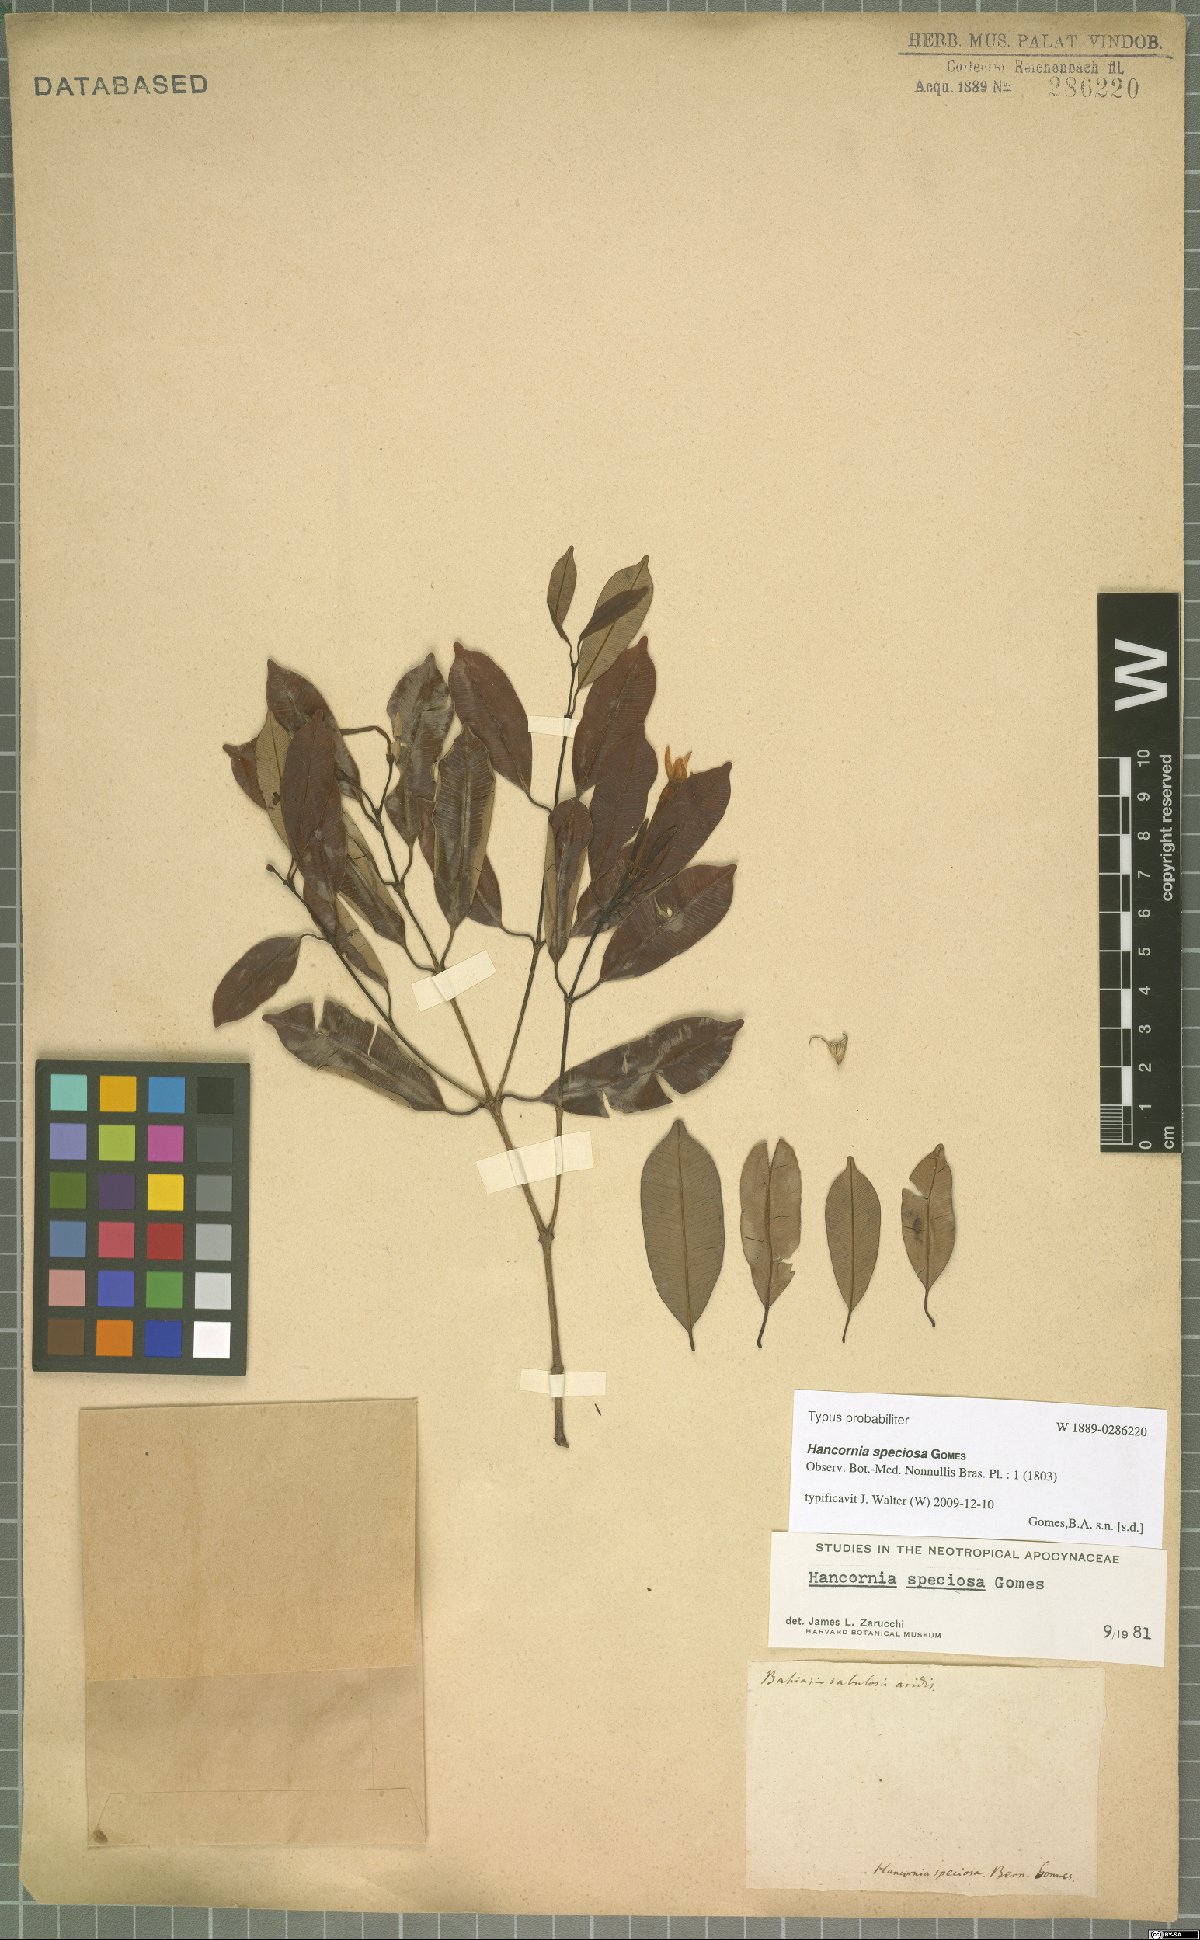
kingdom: Plantae
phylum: Tracheophyta
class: Magnoliopsida
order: Gentianales
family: Apocynaceae
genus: Hancornia
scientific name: Hancornia speciosa
